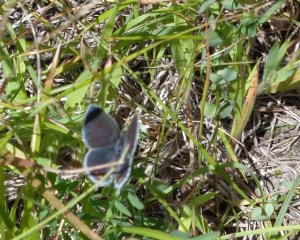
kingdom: Animalia
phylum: Arthropoda
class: Insecta
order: Lepidoptera
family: Lycaenidae
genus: Elkalyce
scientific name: Elkalyce comyntas
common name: Eastern Tailed-Blue
